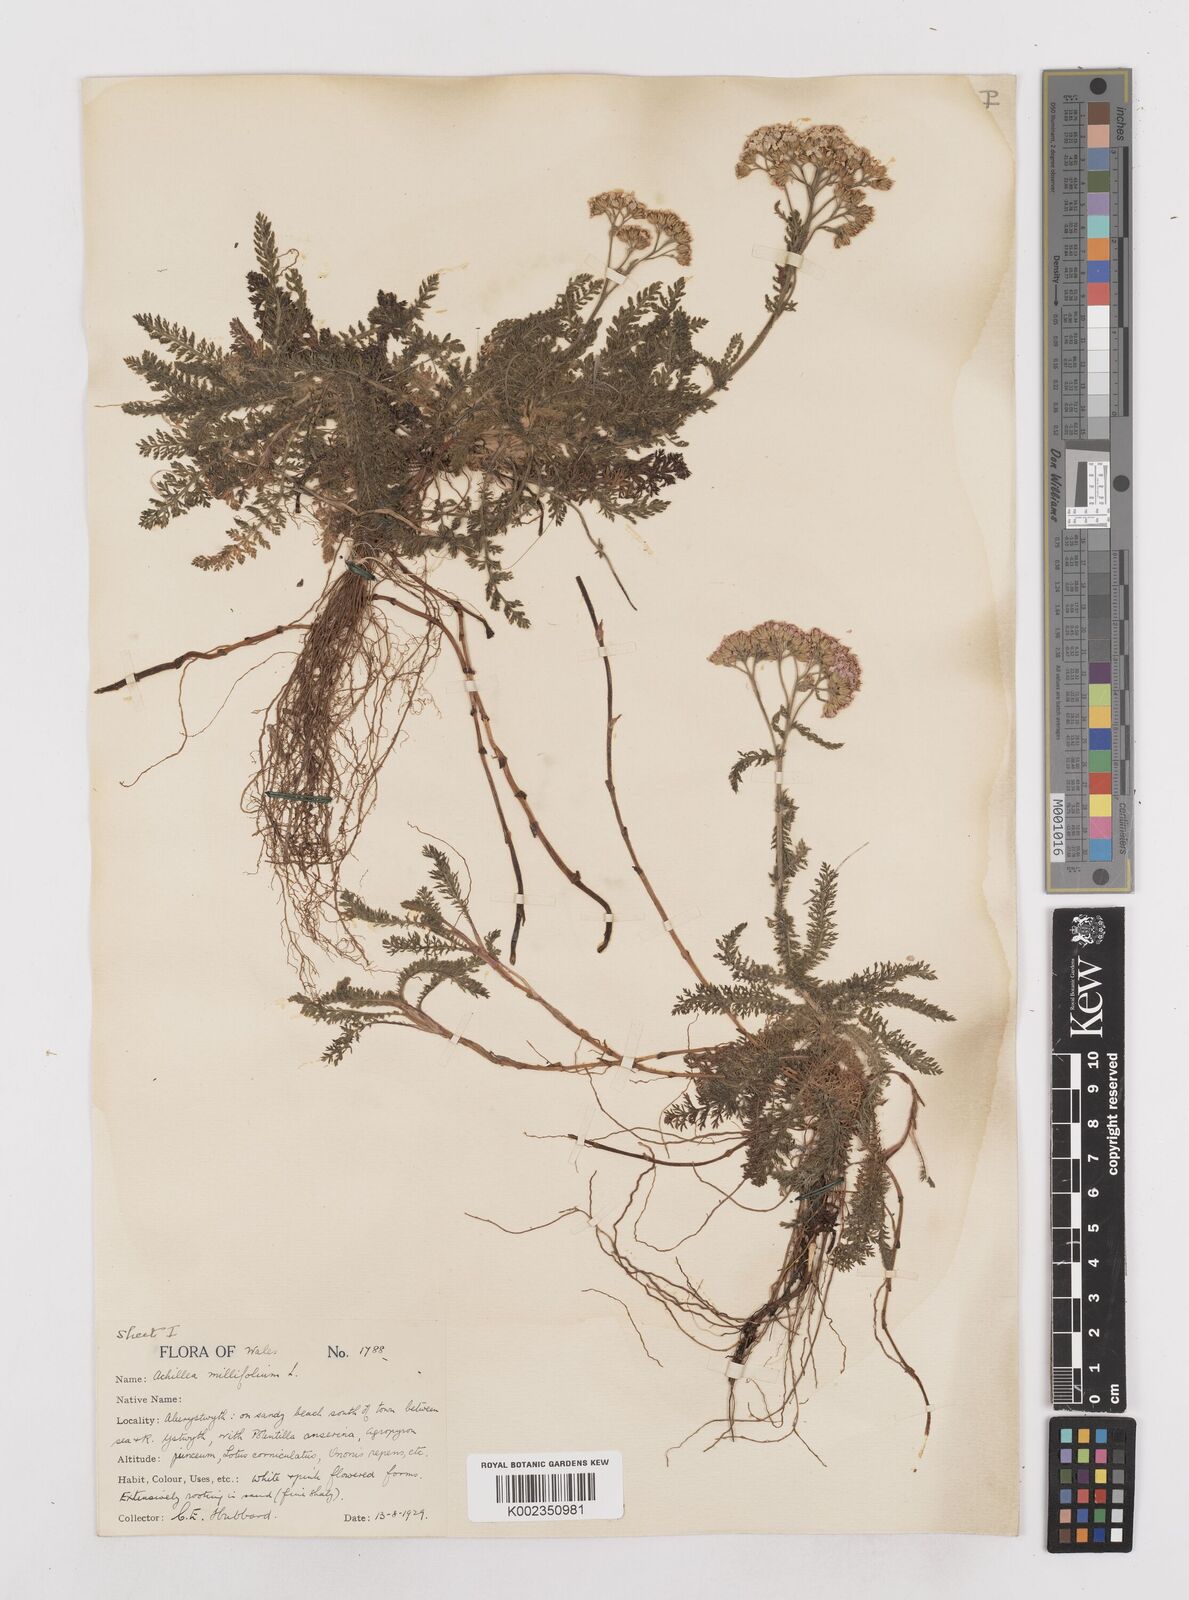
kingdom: Plantae
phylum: Tracheophyta
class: Magnoliopsida
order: Asterales
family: Asteraceae
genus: Achillea
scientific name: Achillea millefolium
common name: Yarrow
